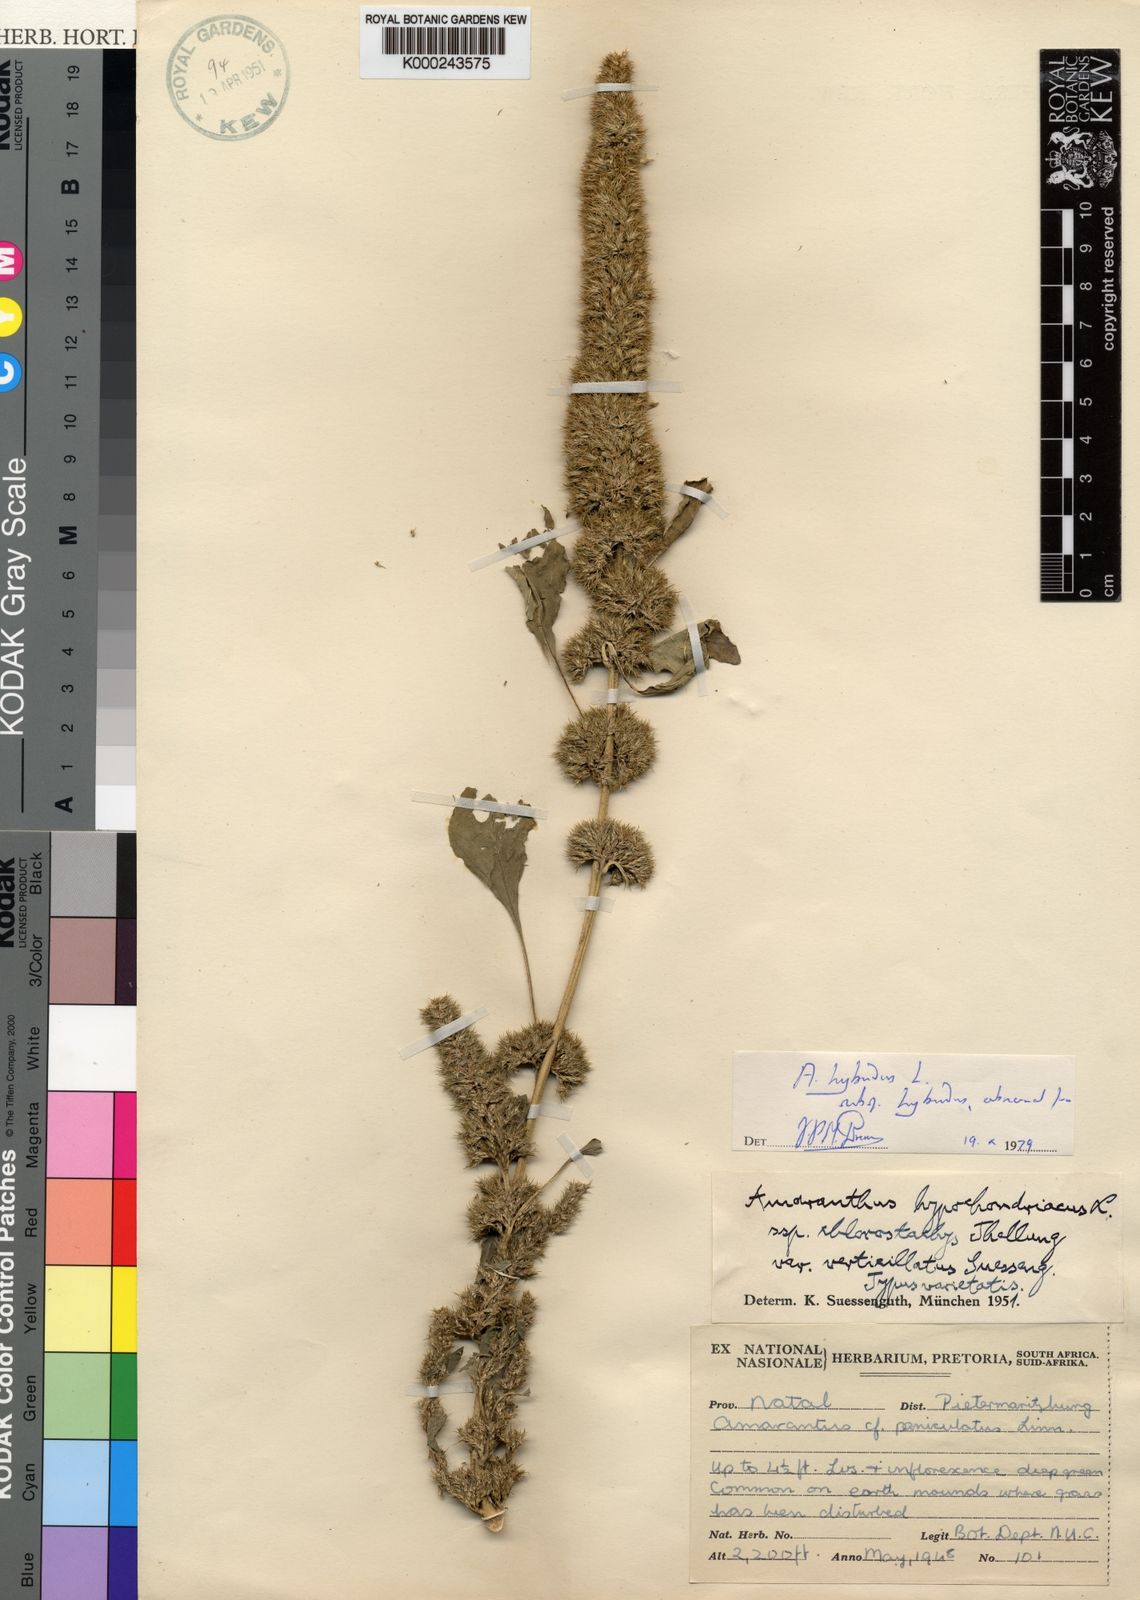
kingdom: Plantae
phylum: Tracheophyta
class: Magnoliopsida
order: Caryophyllales
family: Amaranthaceae
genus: Amaranthus
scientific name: Amaranthus hybridus
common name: Green amaranth
